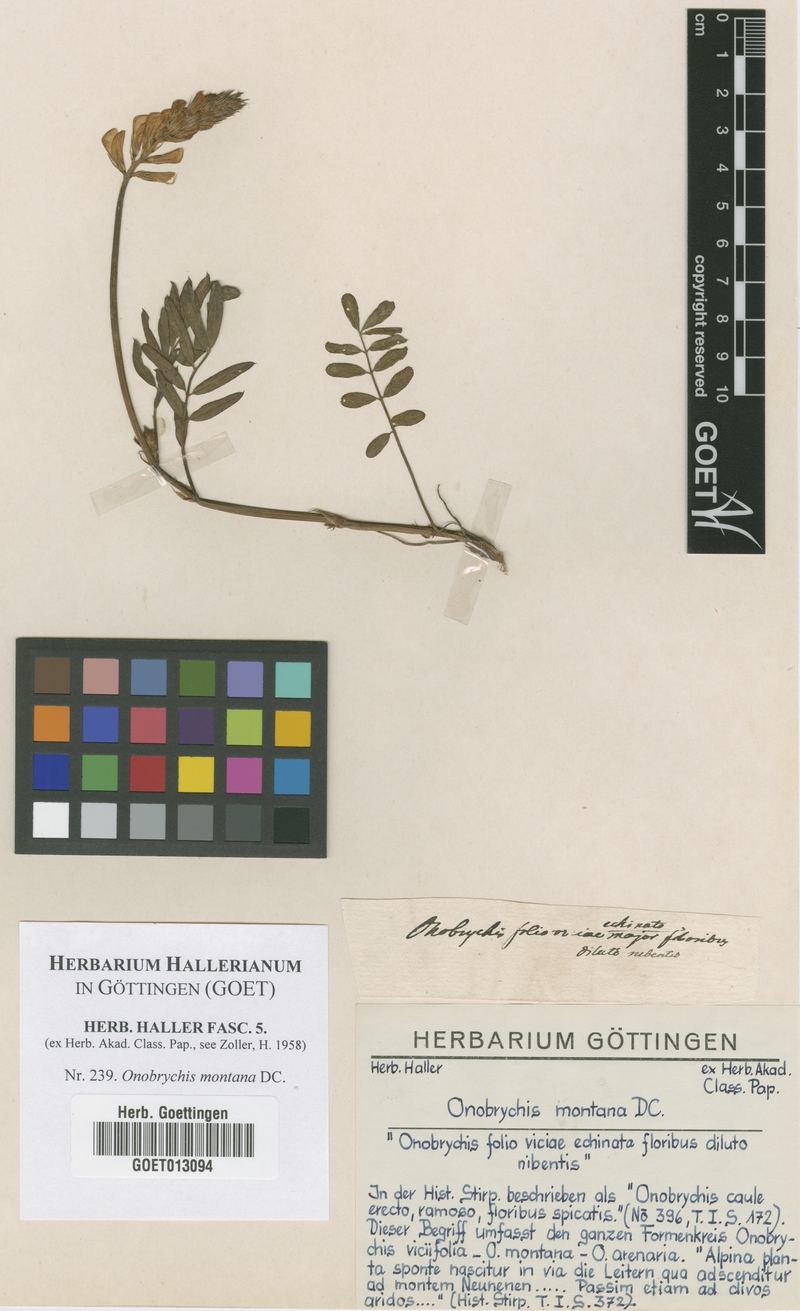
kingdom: Plantae
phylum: Tracheophyta
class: Magnoliopsida
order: Fabales
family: Fabaceae
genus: Onobrychis
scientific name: Onobrychis montana
